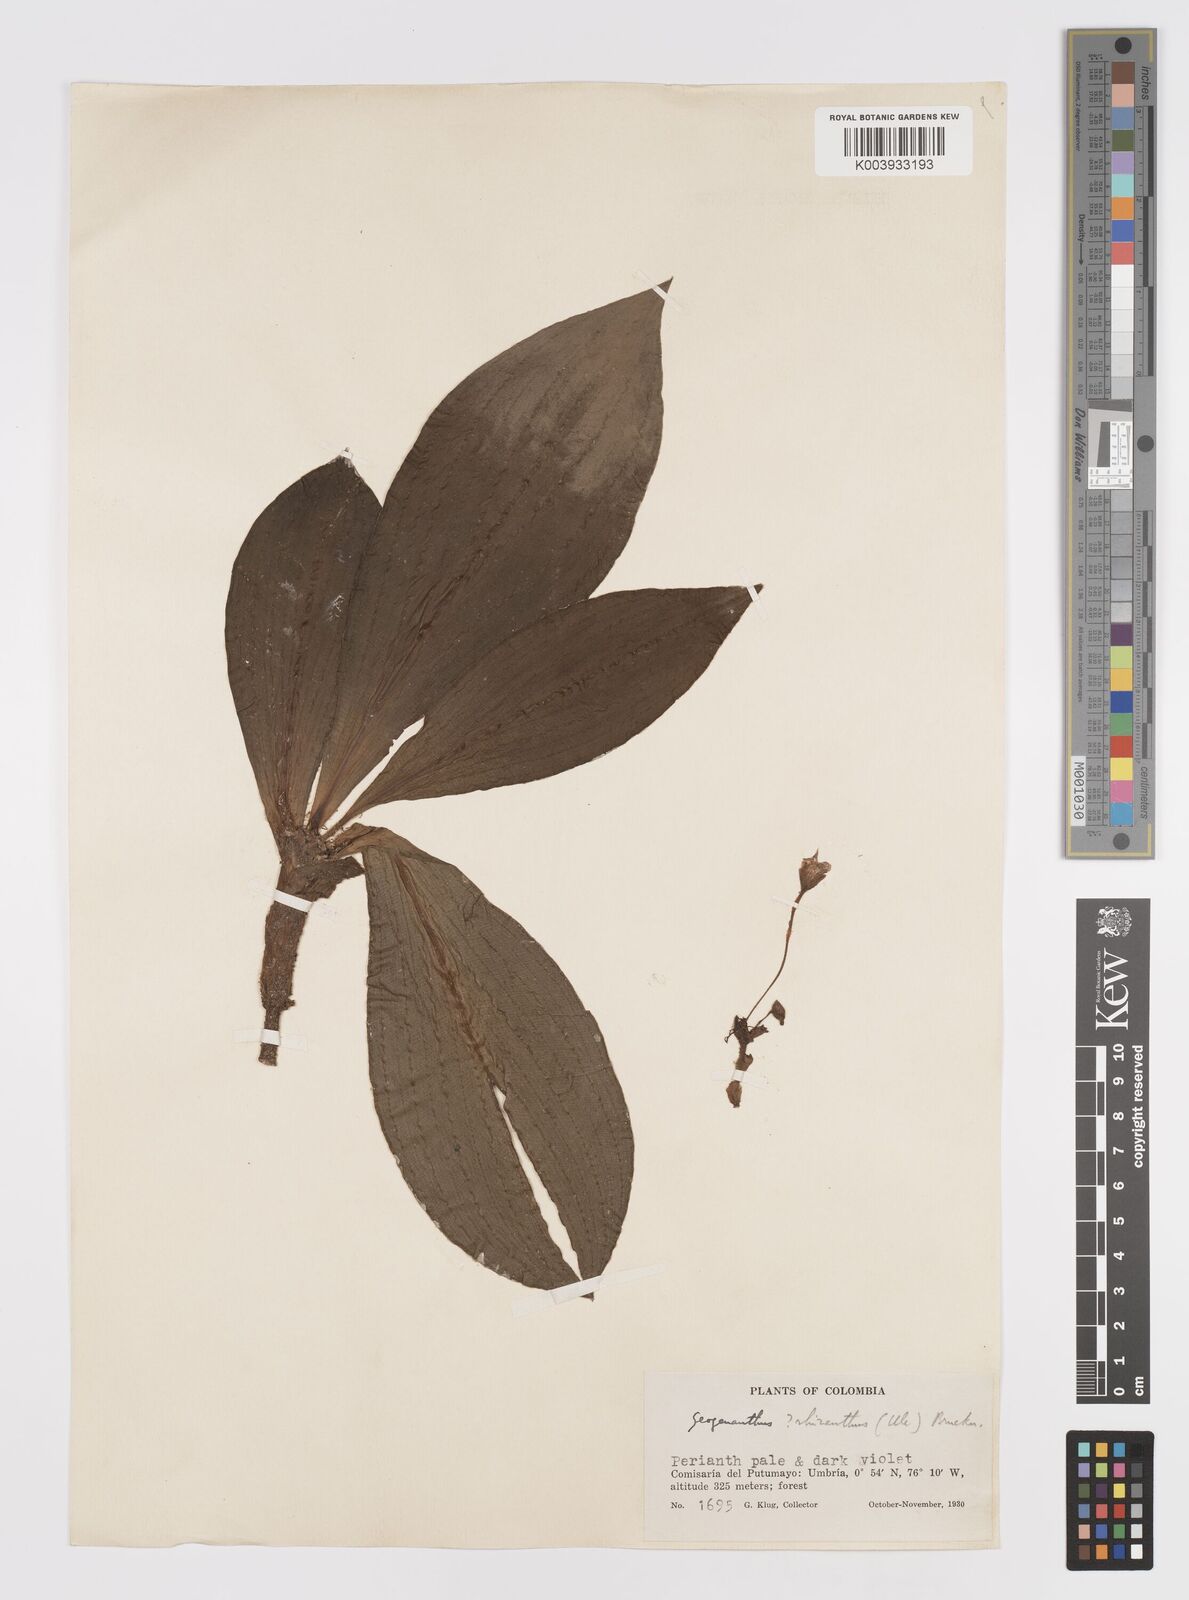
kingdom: Plantae
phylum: Tracheophyta
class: Liliopsida
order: Commelinales
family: Commelinaceae
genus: Geogenanthus
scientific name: Geogenanthus rhizanthus
